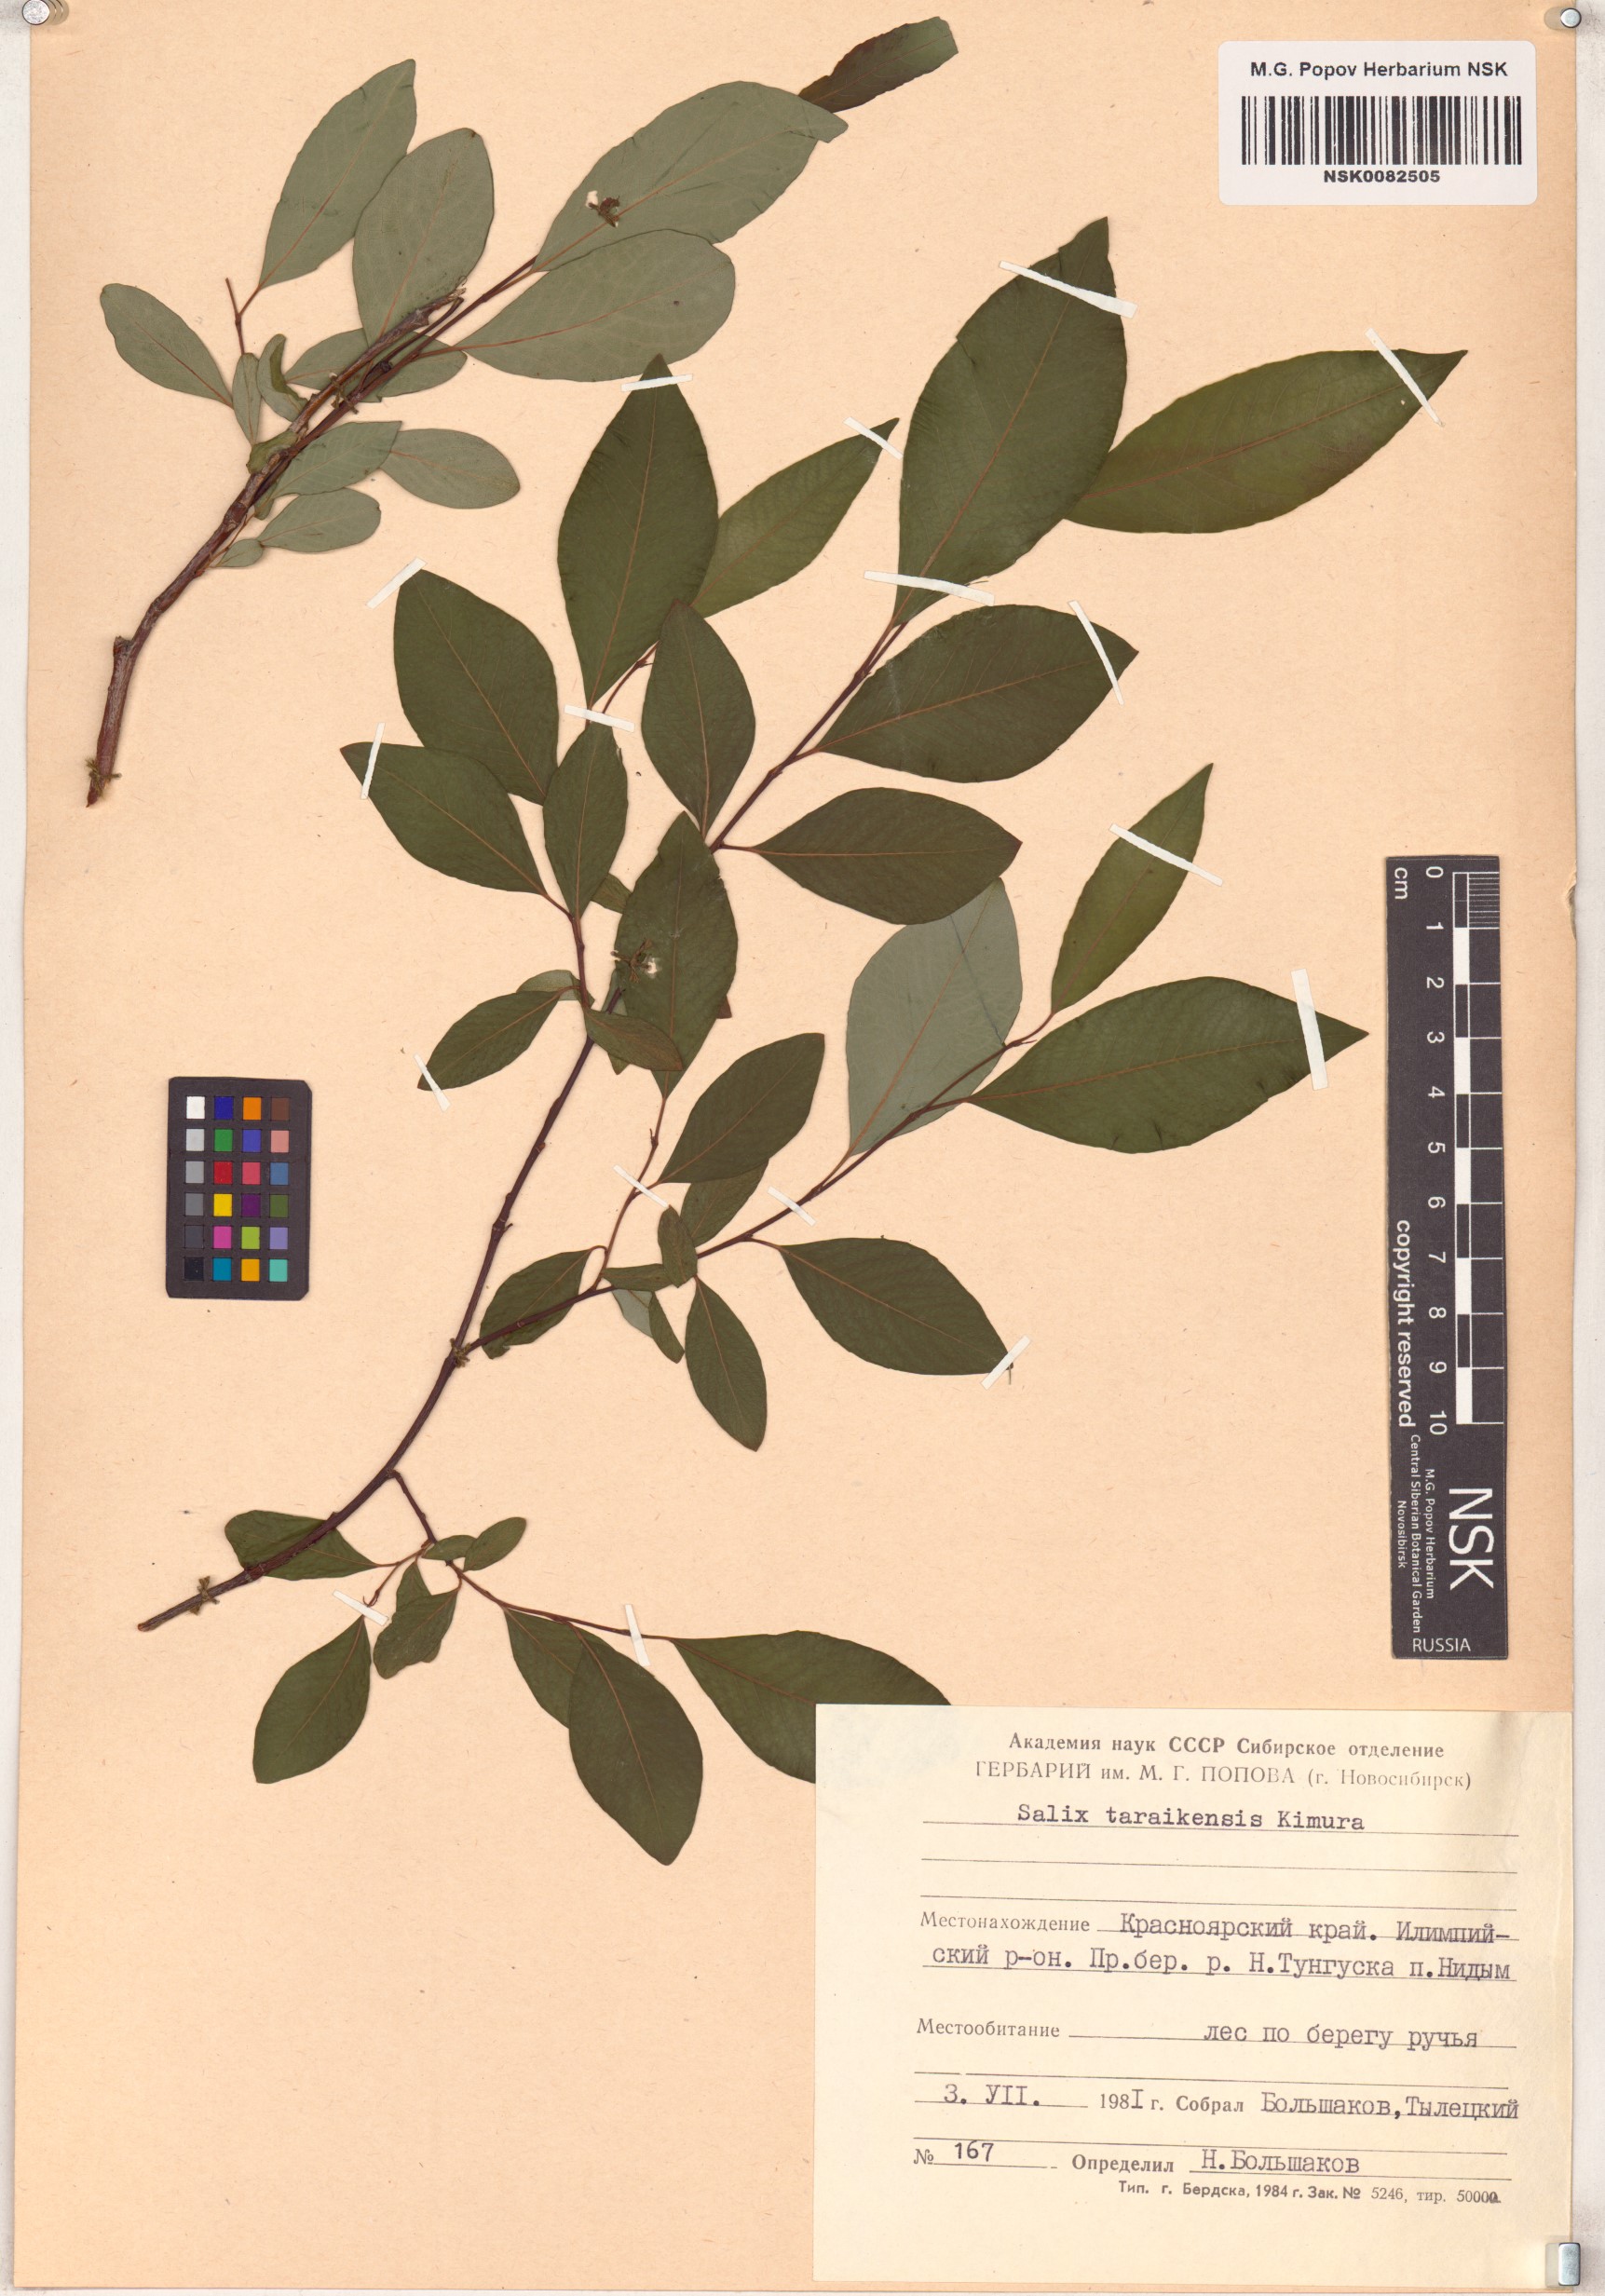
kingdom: Plantae
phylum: Tracheophyta
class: Magnoliopsida
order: Malpighiales
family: Salicaceae
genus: Salix
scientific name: Salix taraikensis
